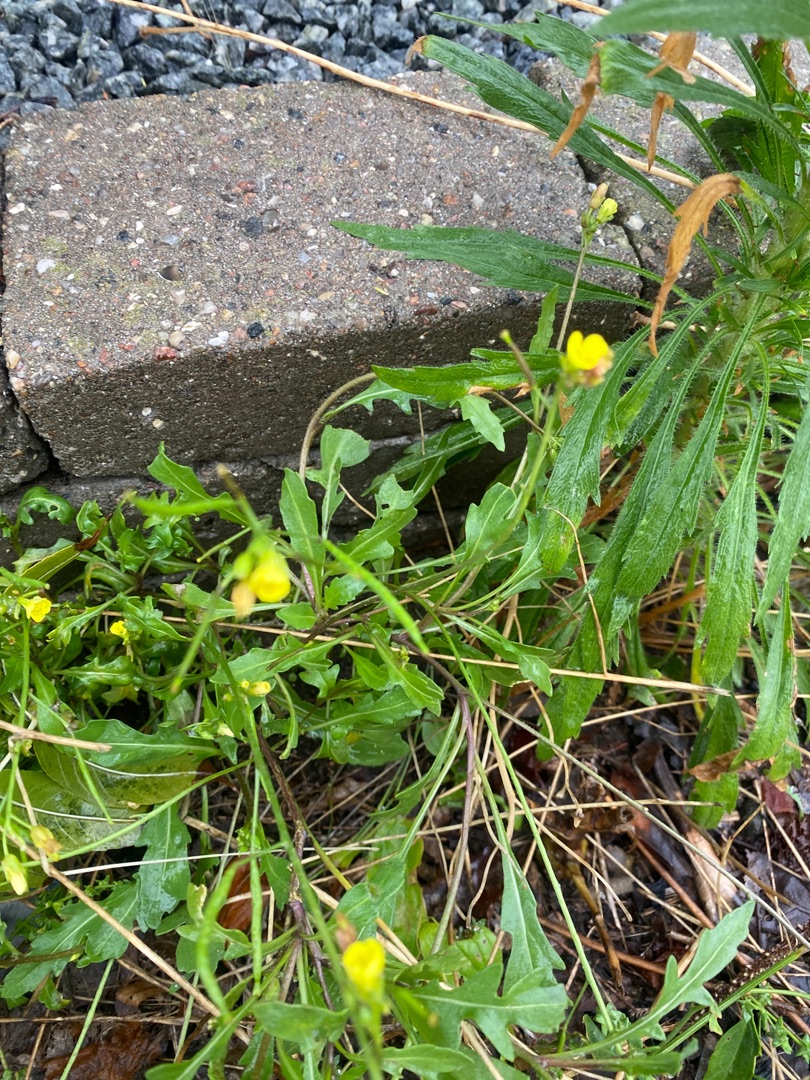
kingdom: Plantae
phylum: Tracheophyta
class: Magnoliopsida
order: Brassicales
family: Brassicaceae
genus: Diplotaxis
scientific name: Diplotaxis tenuifolia
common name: Sandsennep
